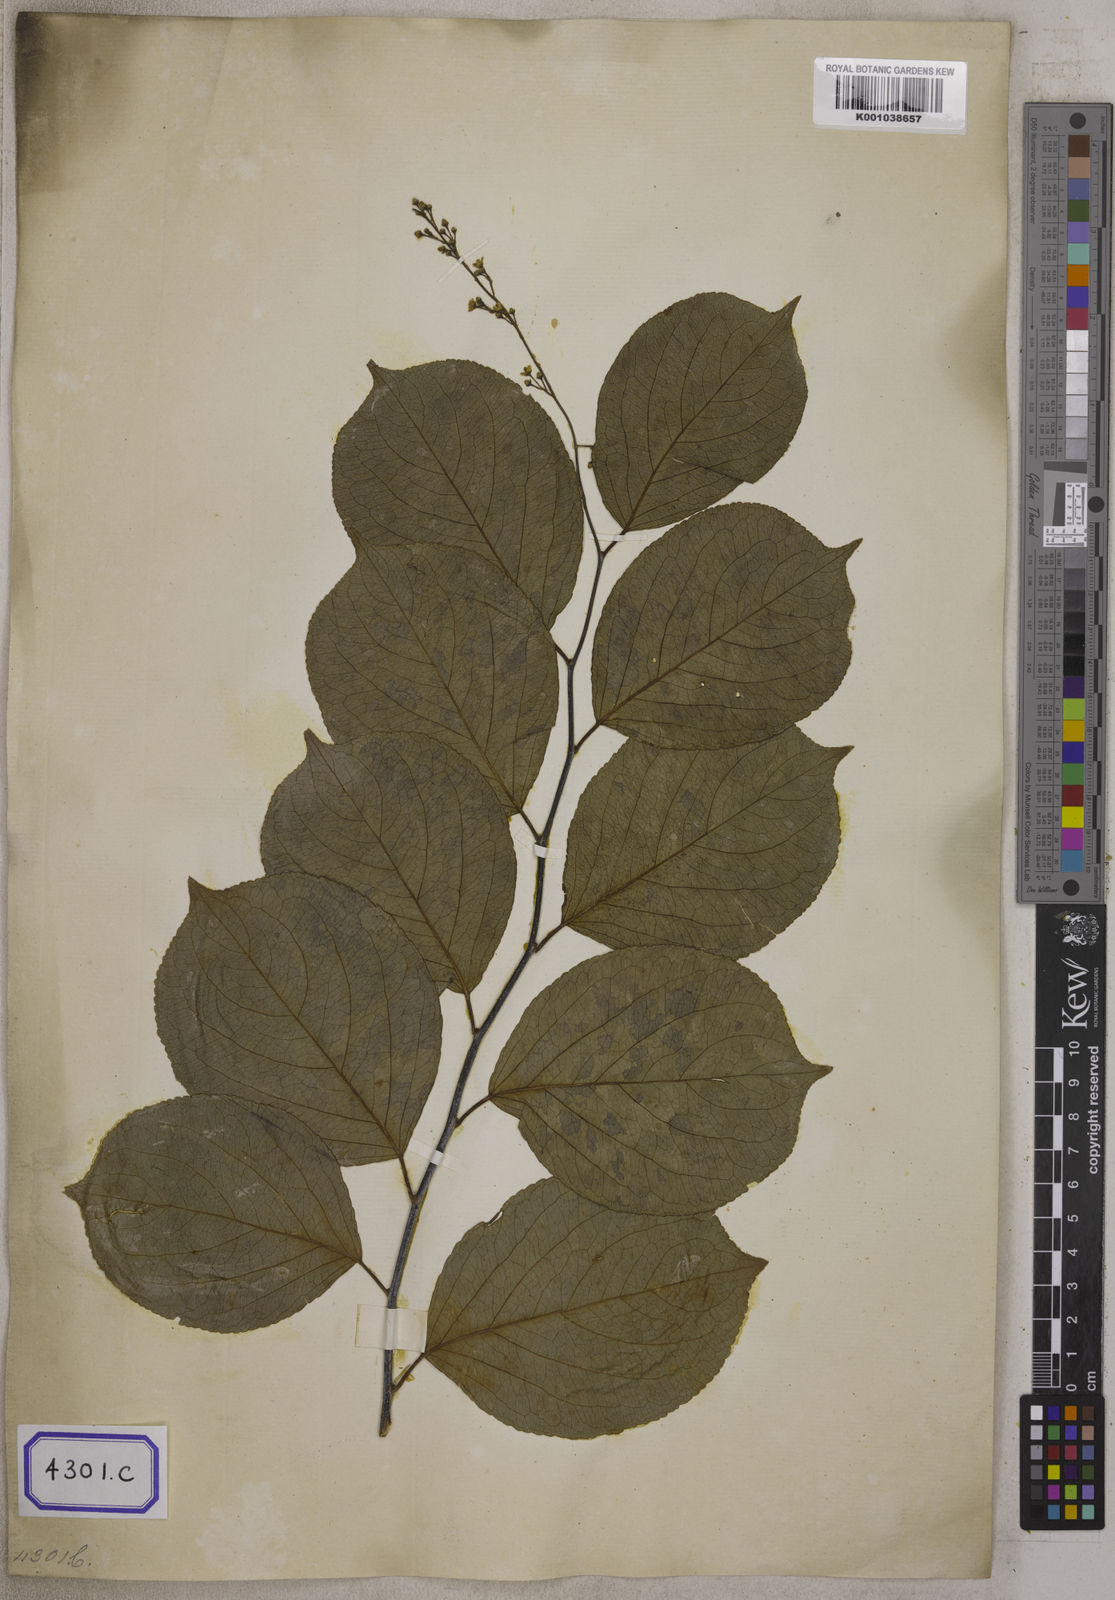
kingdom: Plantae
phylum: Tracheophyta
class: Magnoliopsida
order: Celastrales
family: Celastraceae
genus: Celastrus
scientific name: Celastrus paniculatus
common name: Oriental bittersweet; staff vine
